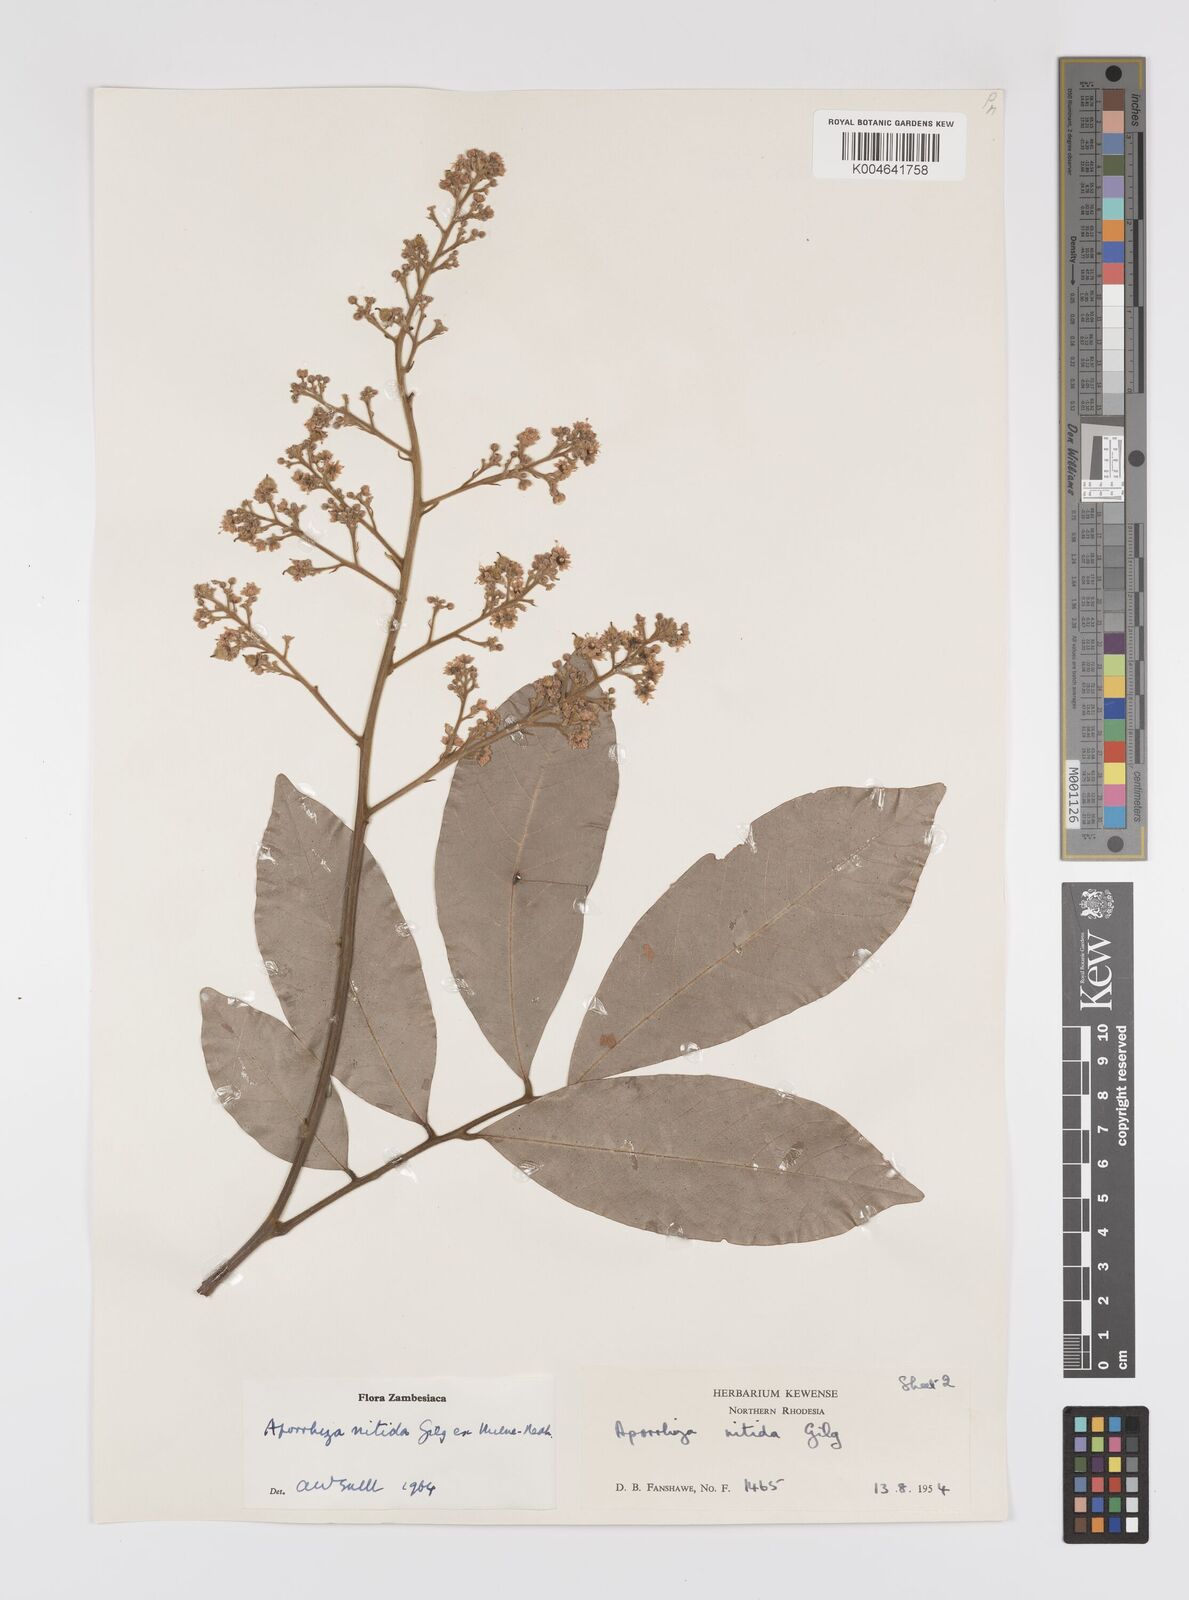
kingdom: Plantae
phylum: Tracheophyta
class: Magnoliopsida
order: Sapindales
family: Sapindaceae
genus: Aporrhiza
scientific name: Aporrhiza paniculata
